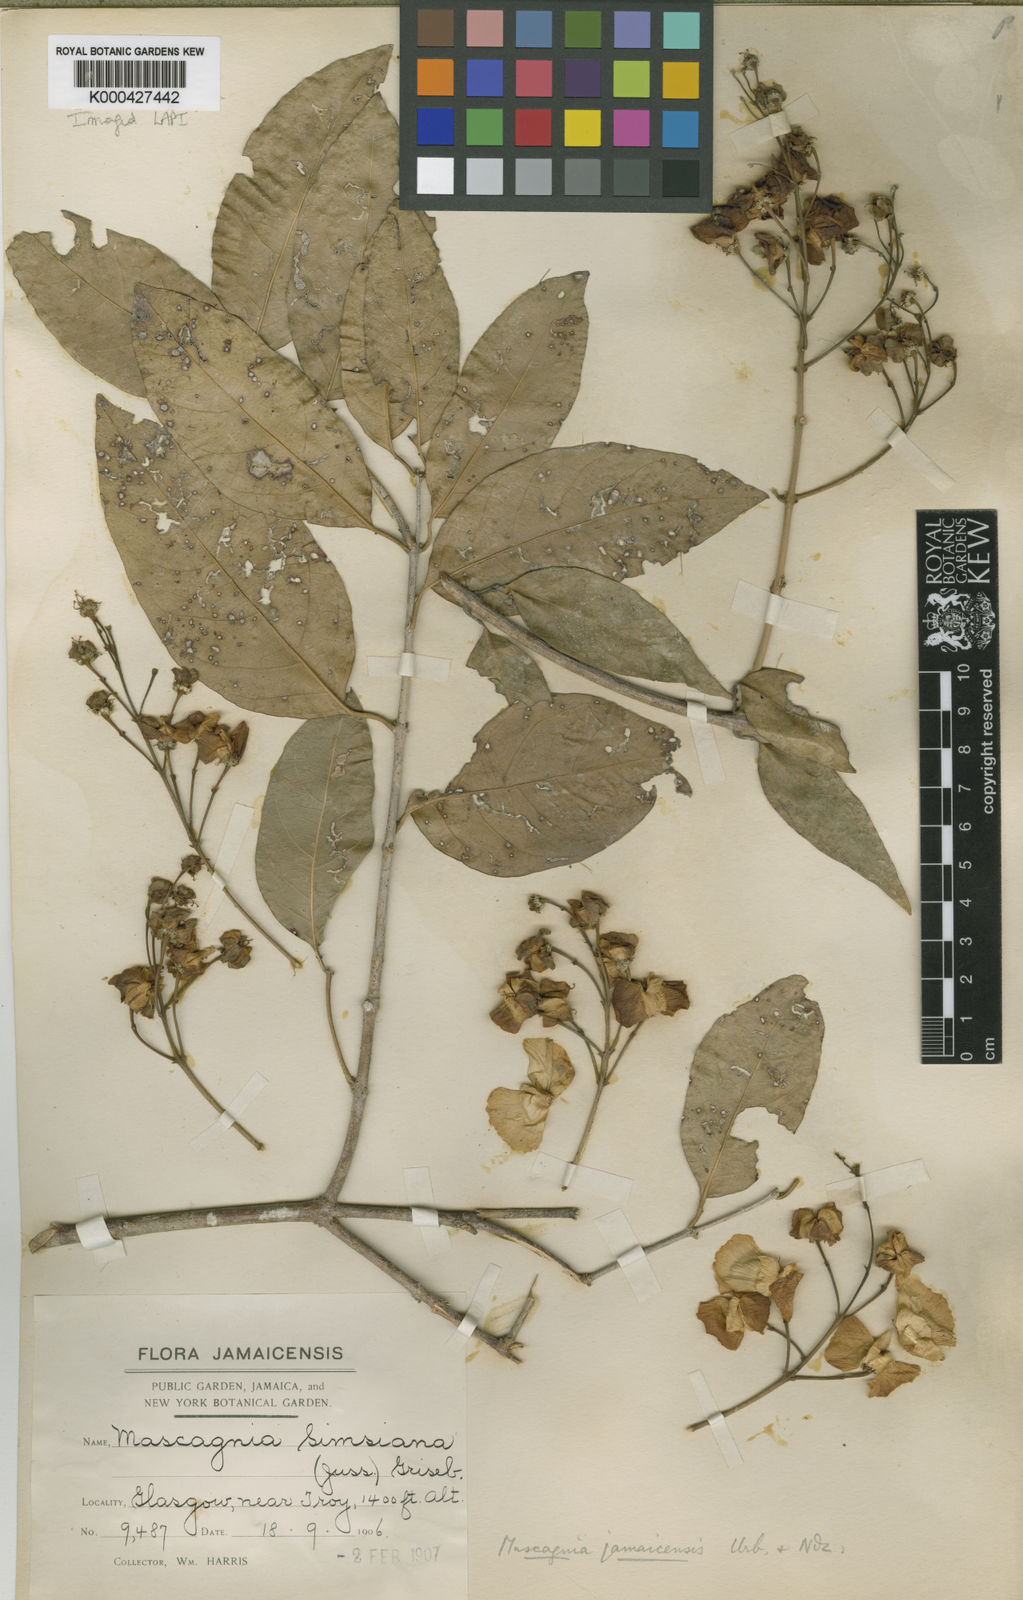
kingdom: Plantae
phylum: Tracheophyta
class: Magnoliopsida
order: Malpighiales
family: Malpighiaceae
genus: Adelphia
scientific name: Adelphia hiraea
